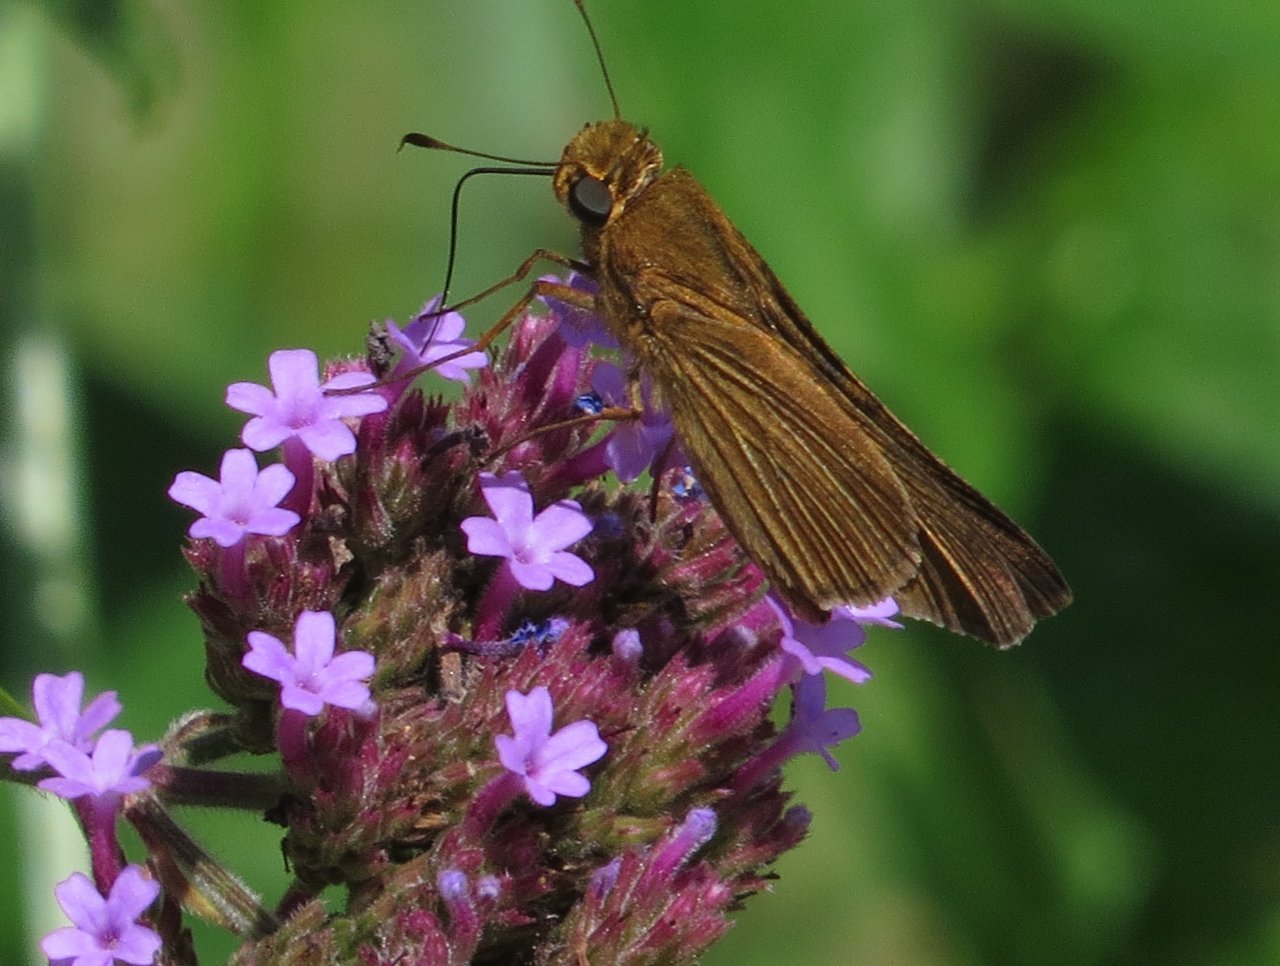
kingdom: Animalia
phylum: Arthropoda
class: Insecta
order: Lepidoptera
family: Hesperiidae
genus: Panoquina
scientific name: Panoquina ocola
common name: Ocola Skipper
